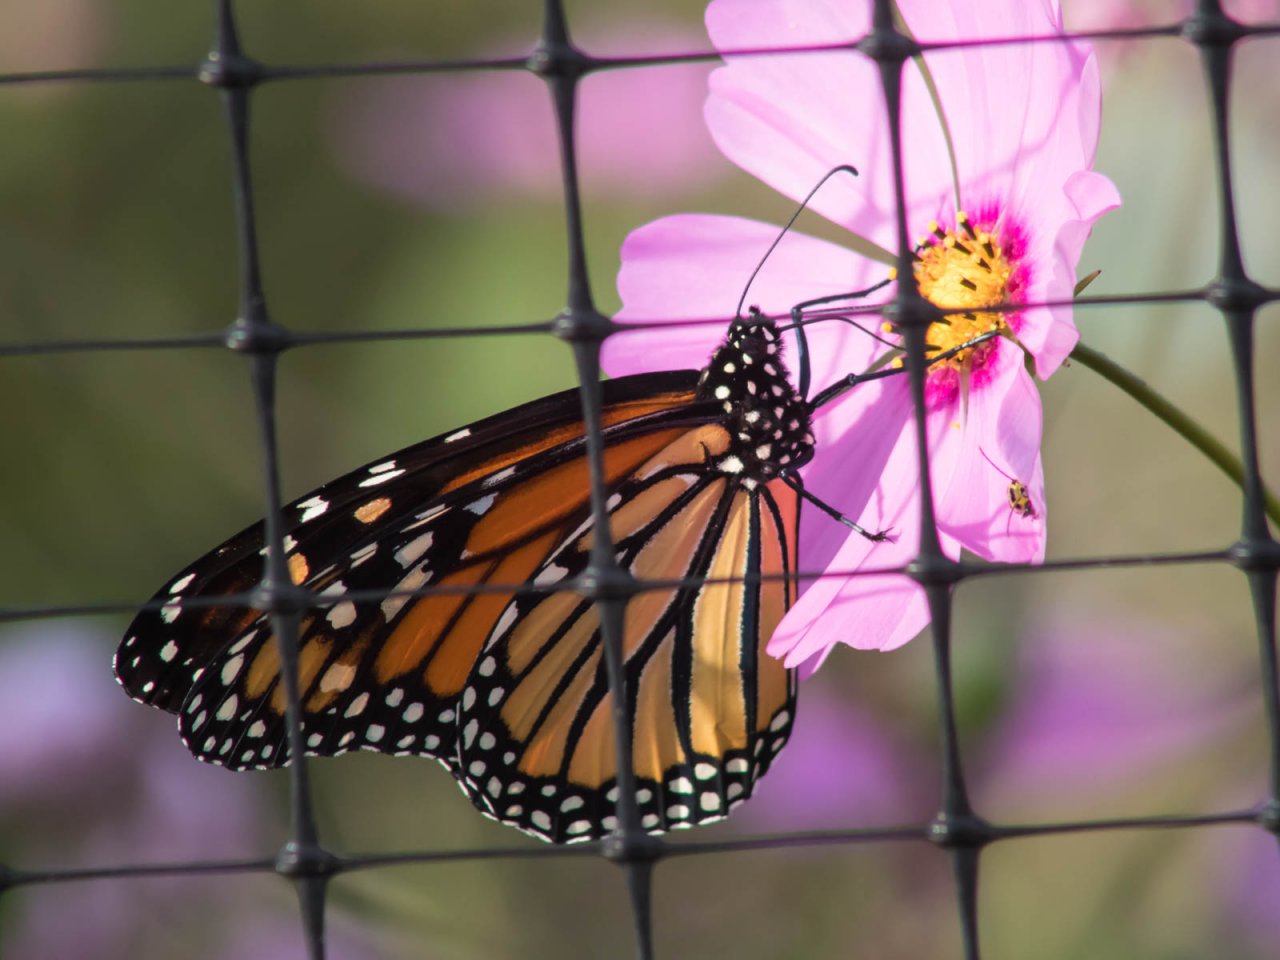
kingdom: Animalia
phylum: Arthropoda
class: Insecta
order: Lepidoptera
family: Nymphalidae
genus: Danaus
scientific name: Danaus plexippus
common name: Monarch
